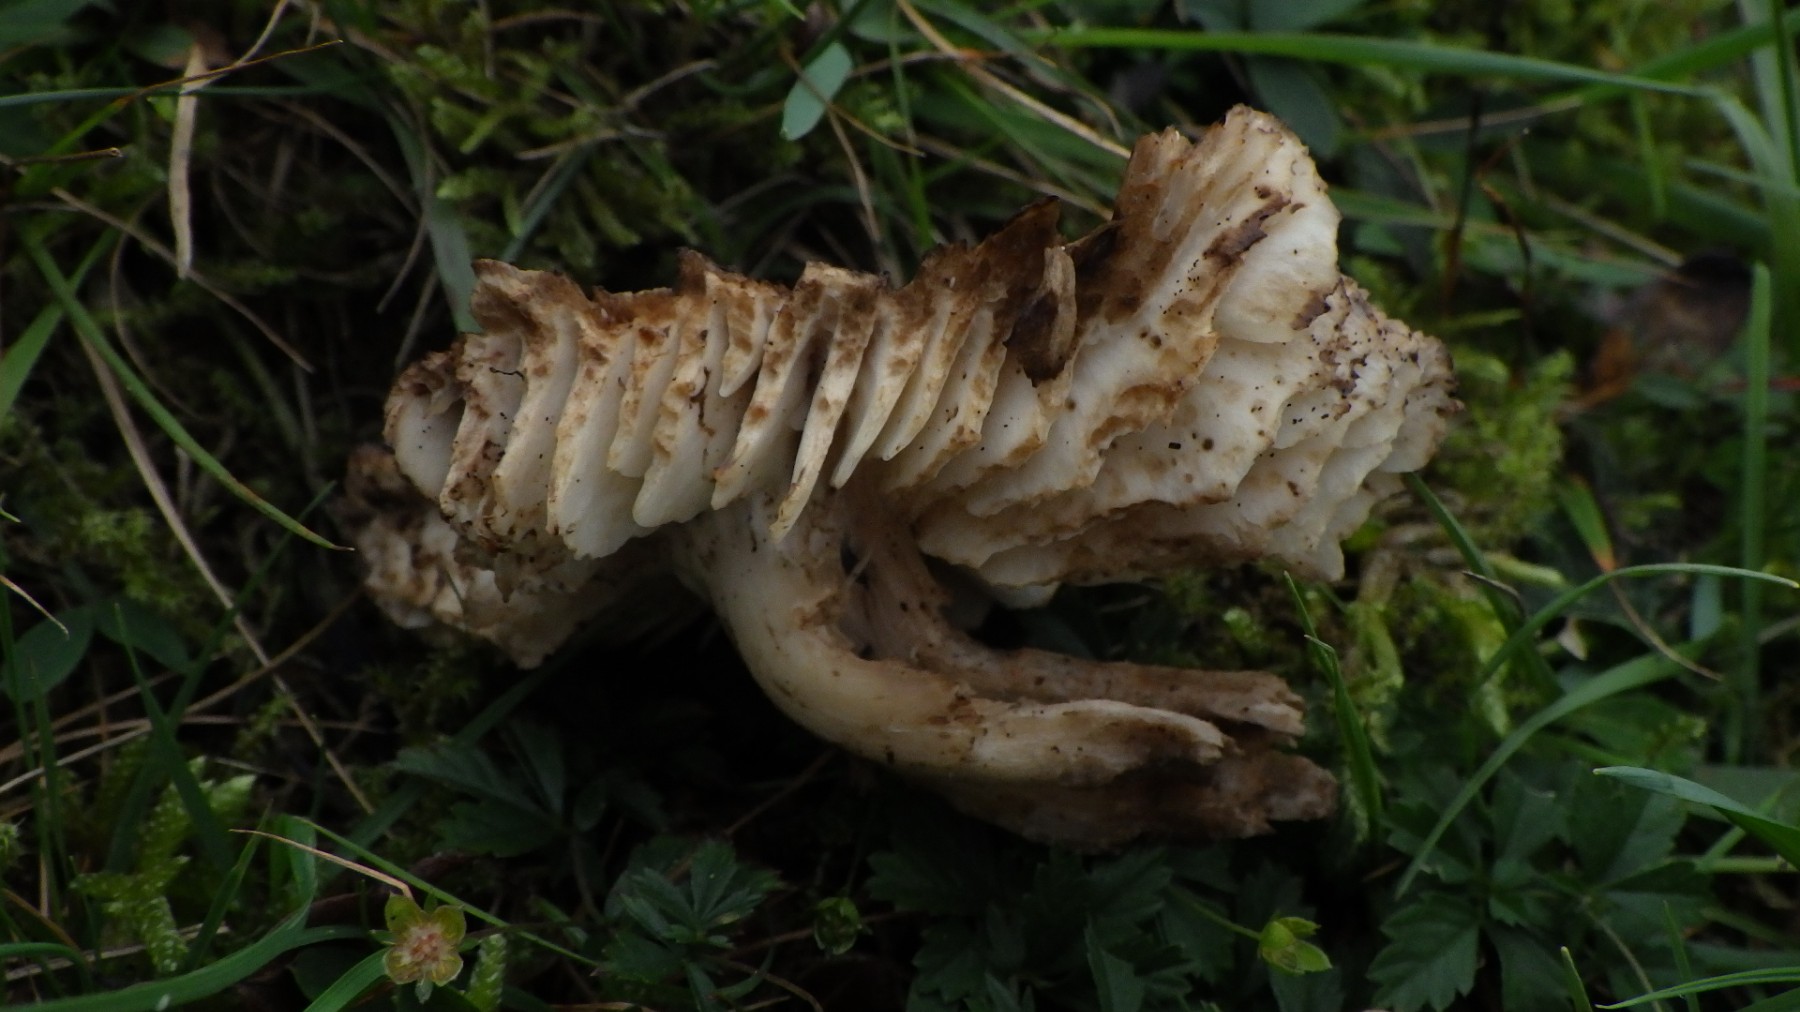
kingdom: Fungi
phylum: Basidiomycota
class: Agaricomycetes
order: Agaricales
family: Hygrophoraceae
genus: Hygrocybe
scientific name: Hygrocybe ingrata
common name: Jensens vokshat
